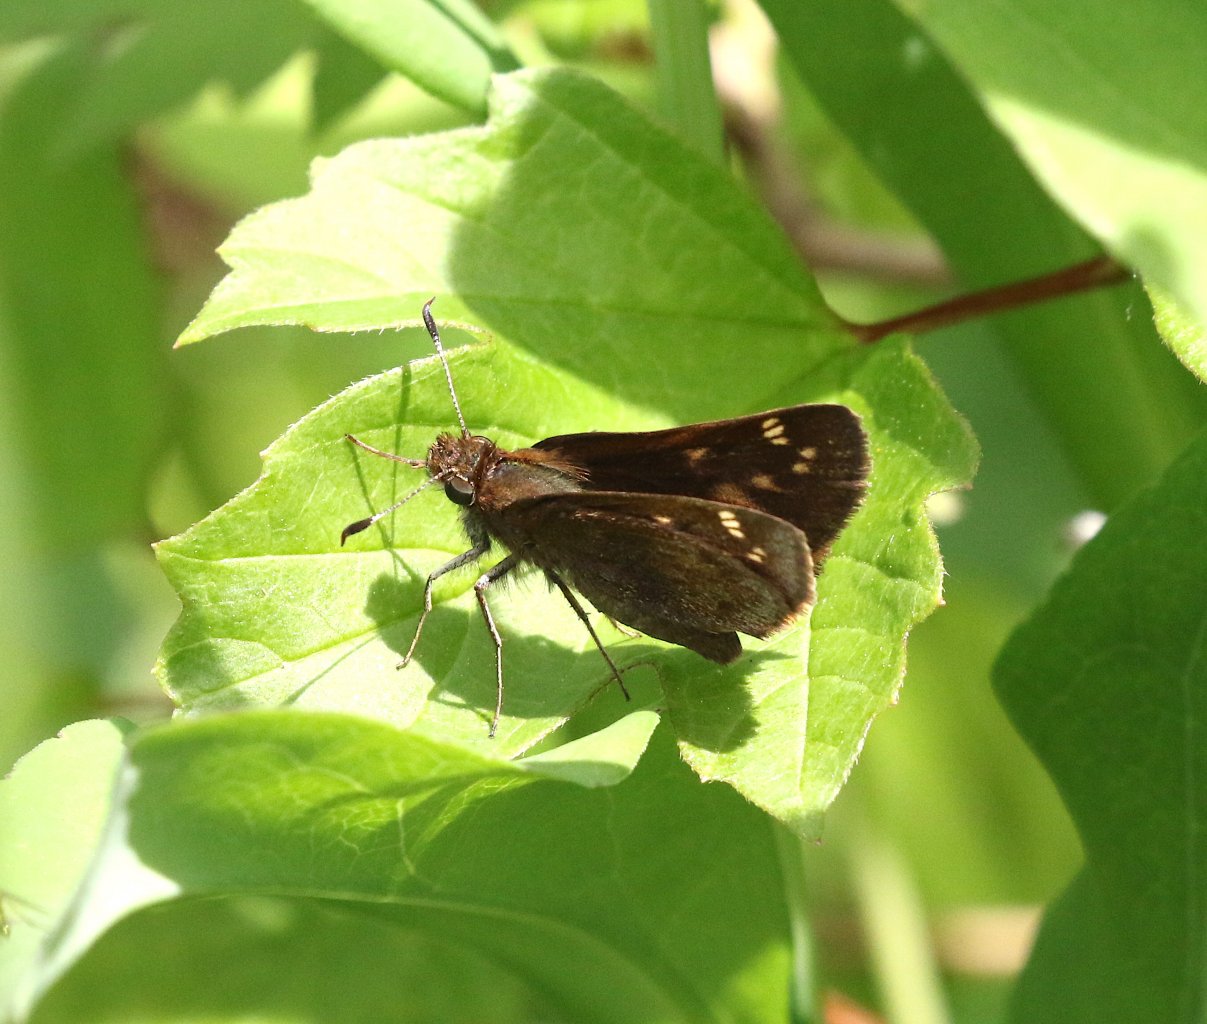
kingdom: Animalia
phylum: Arthropoda
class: Insecta
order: Lepidoptera
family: Hesperiidae
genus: Lon
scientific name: Lon hobomok
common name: Hobomok Skipper
